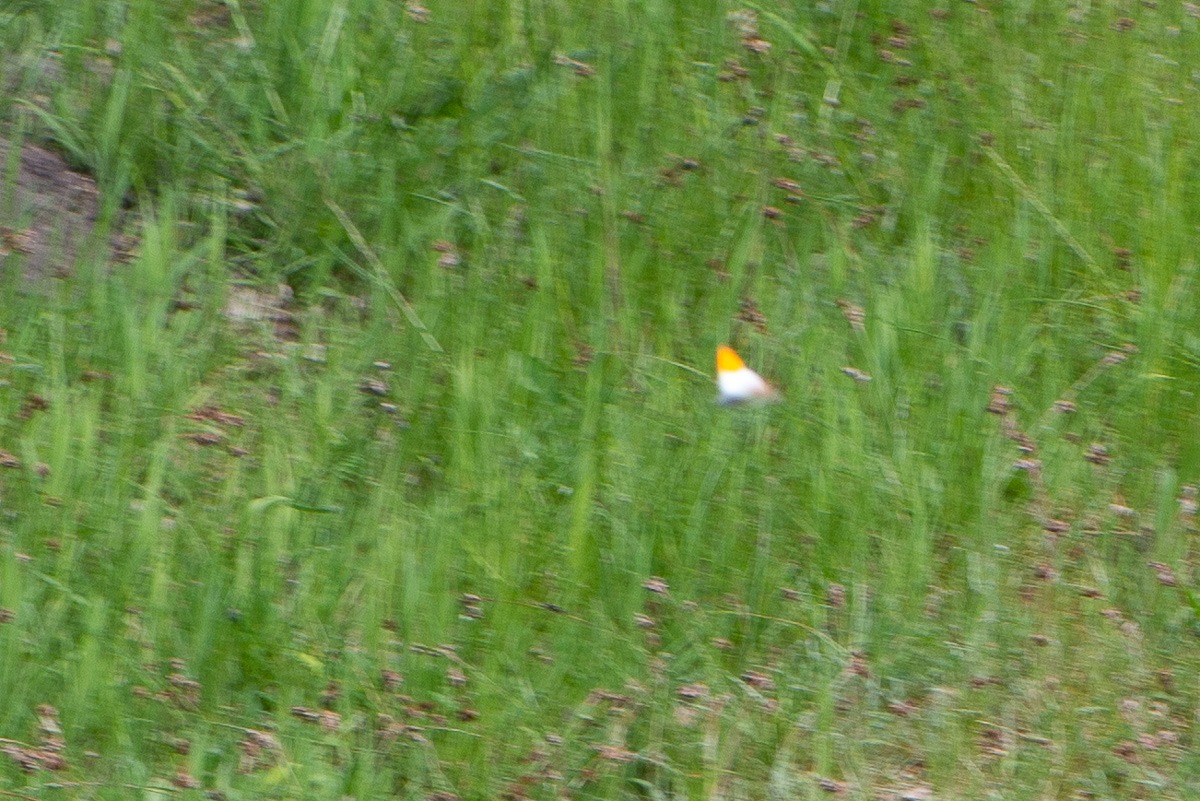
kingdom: Animalia
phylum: Arthropoda
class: Insecta
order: Lepidoptera
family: Pieridae
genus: Anthocharis
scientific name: Anthocharis cardamines
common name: Aurora
